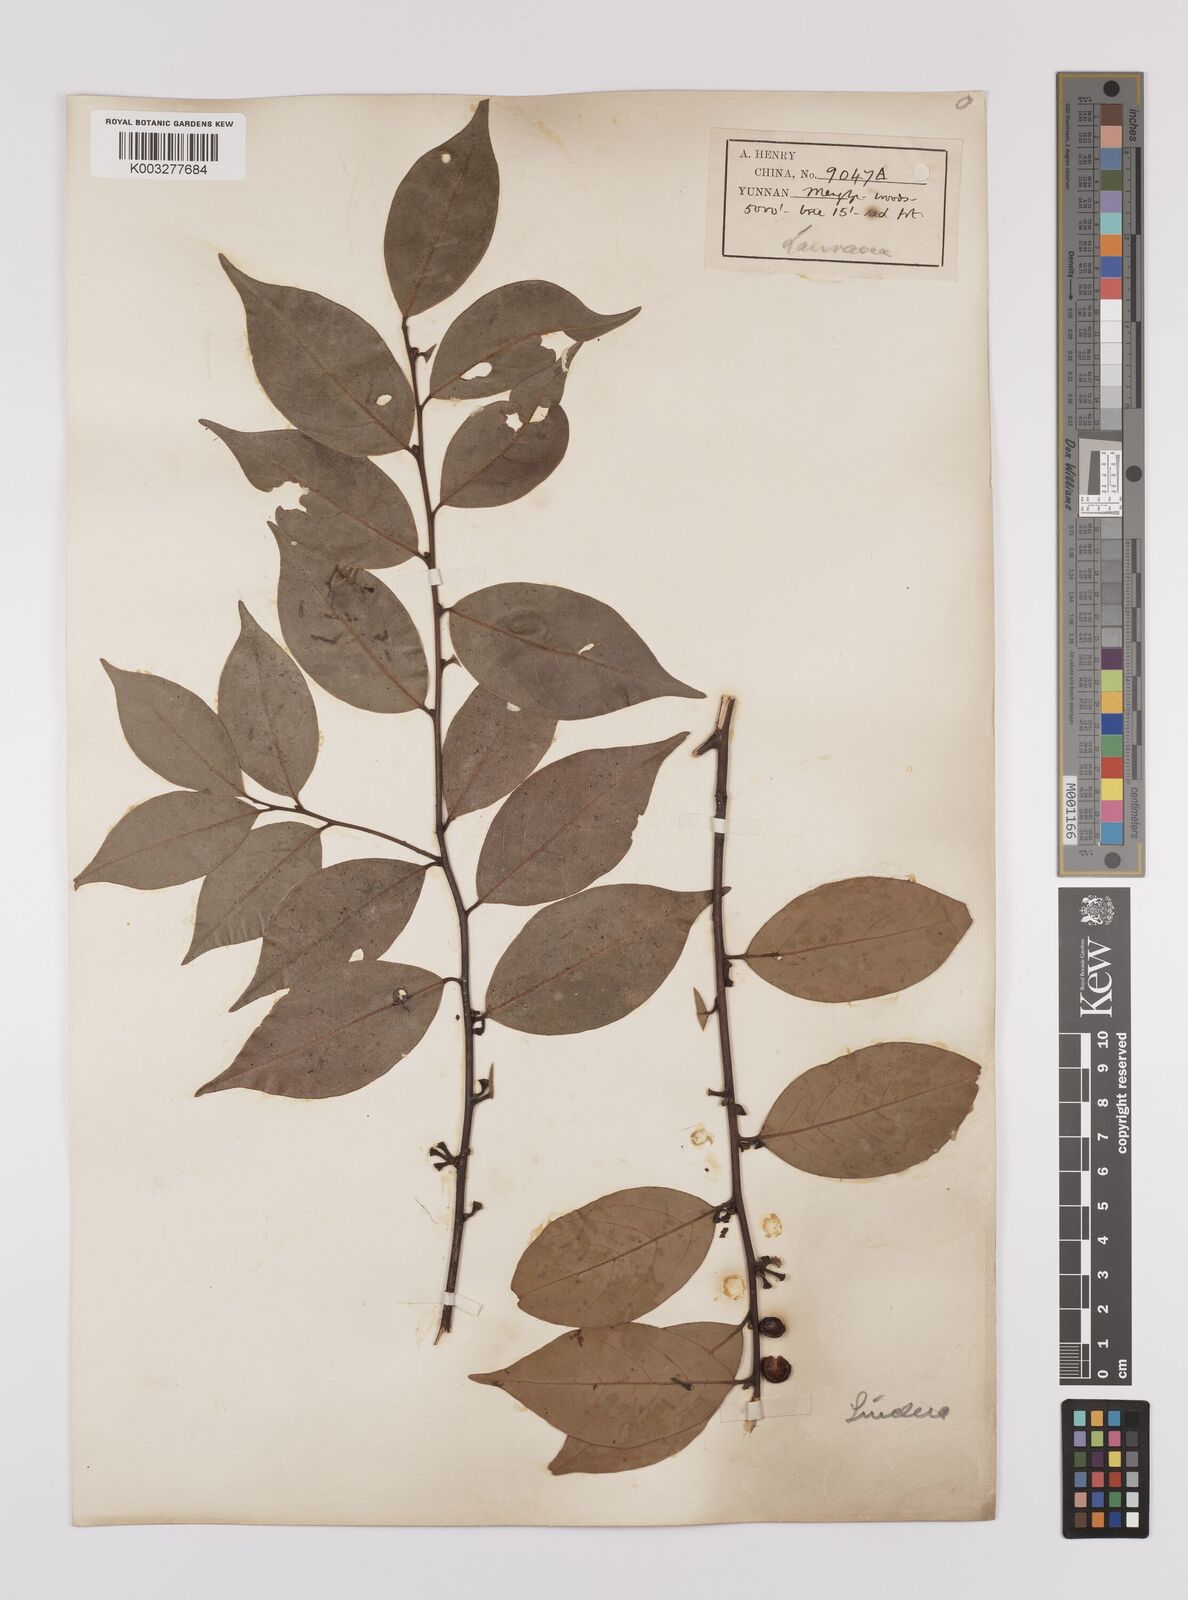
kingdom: Plantae
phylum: Tracheophyta
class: Magnoliopsida
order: Laurales
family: Lauraceae
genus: Litsea
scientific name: Litsea rotundifolia
